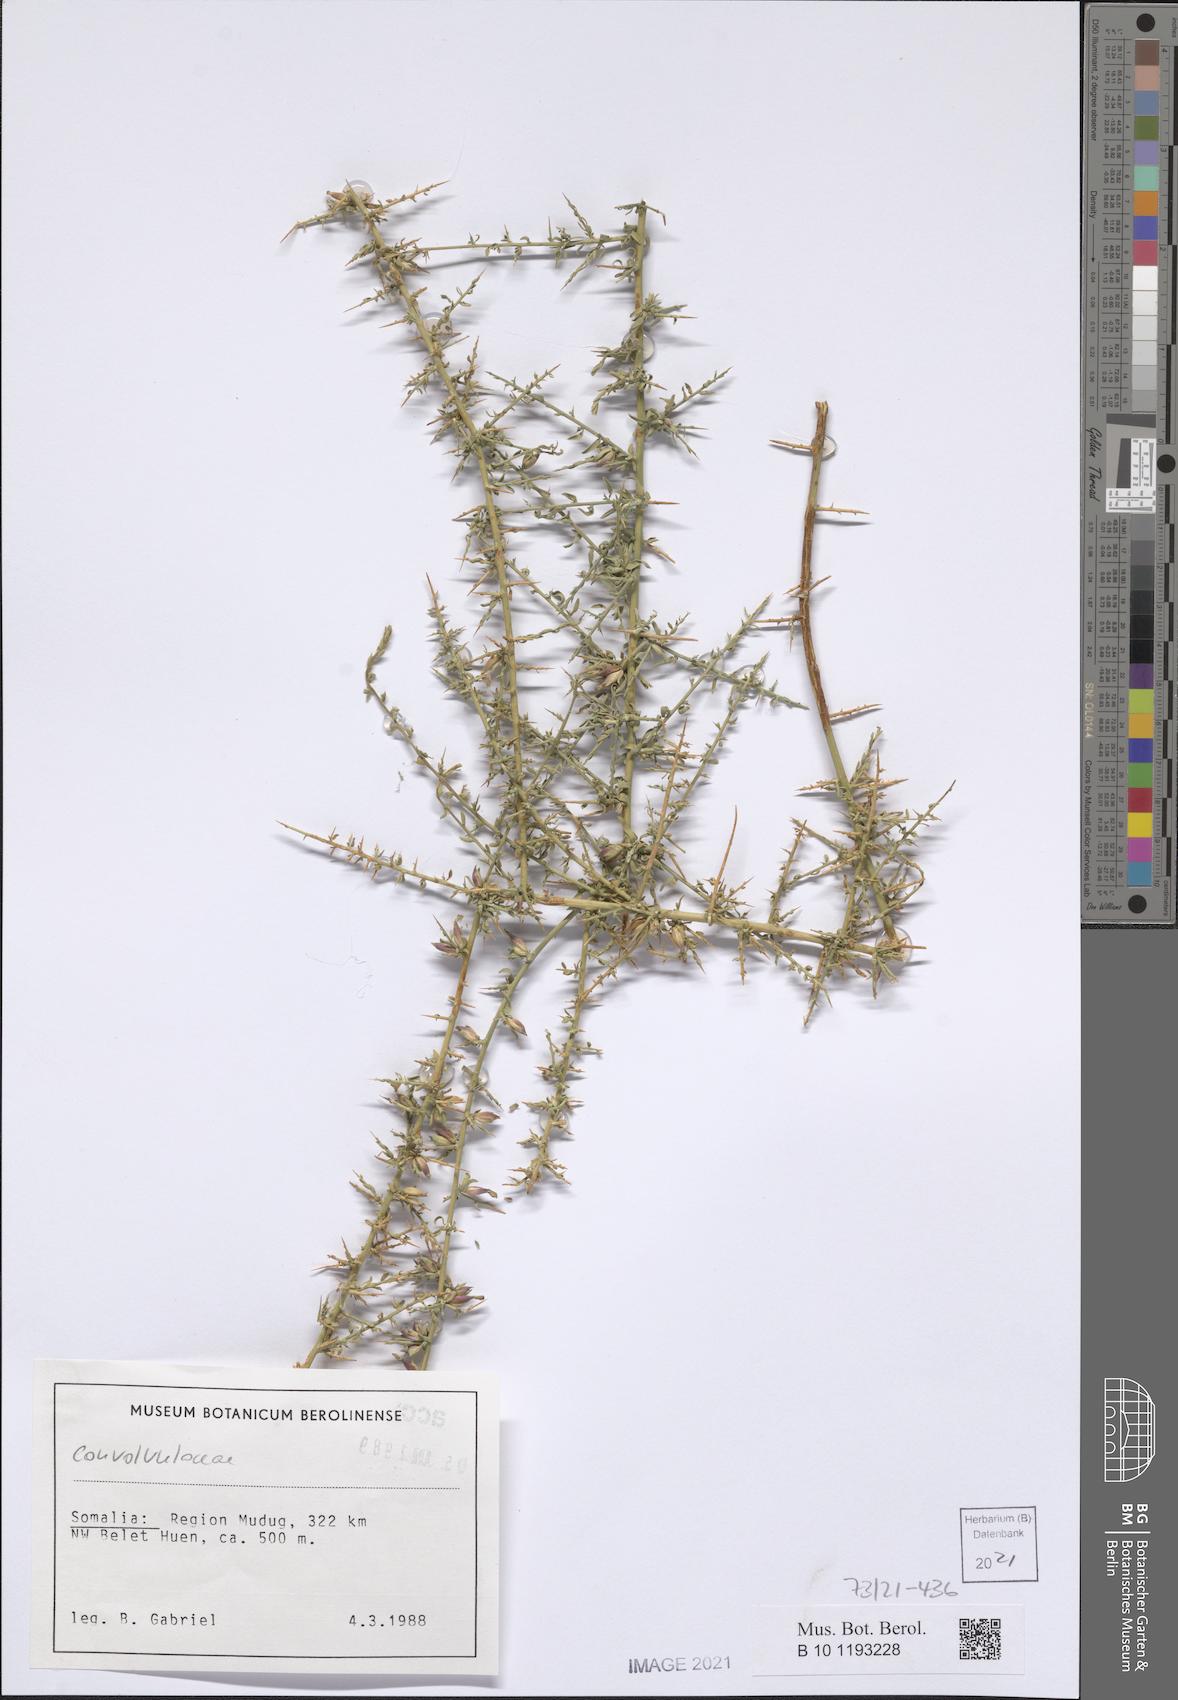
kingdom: Plantae
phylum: Tracheophyta
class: Magnoliopsida
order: Solanales
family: Convolvulaceae
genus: Convolvulus
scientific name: Convolvulus hystrix
